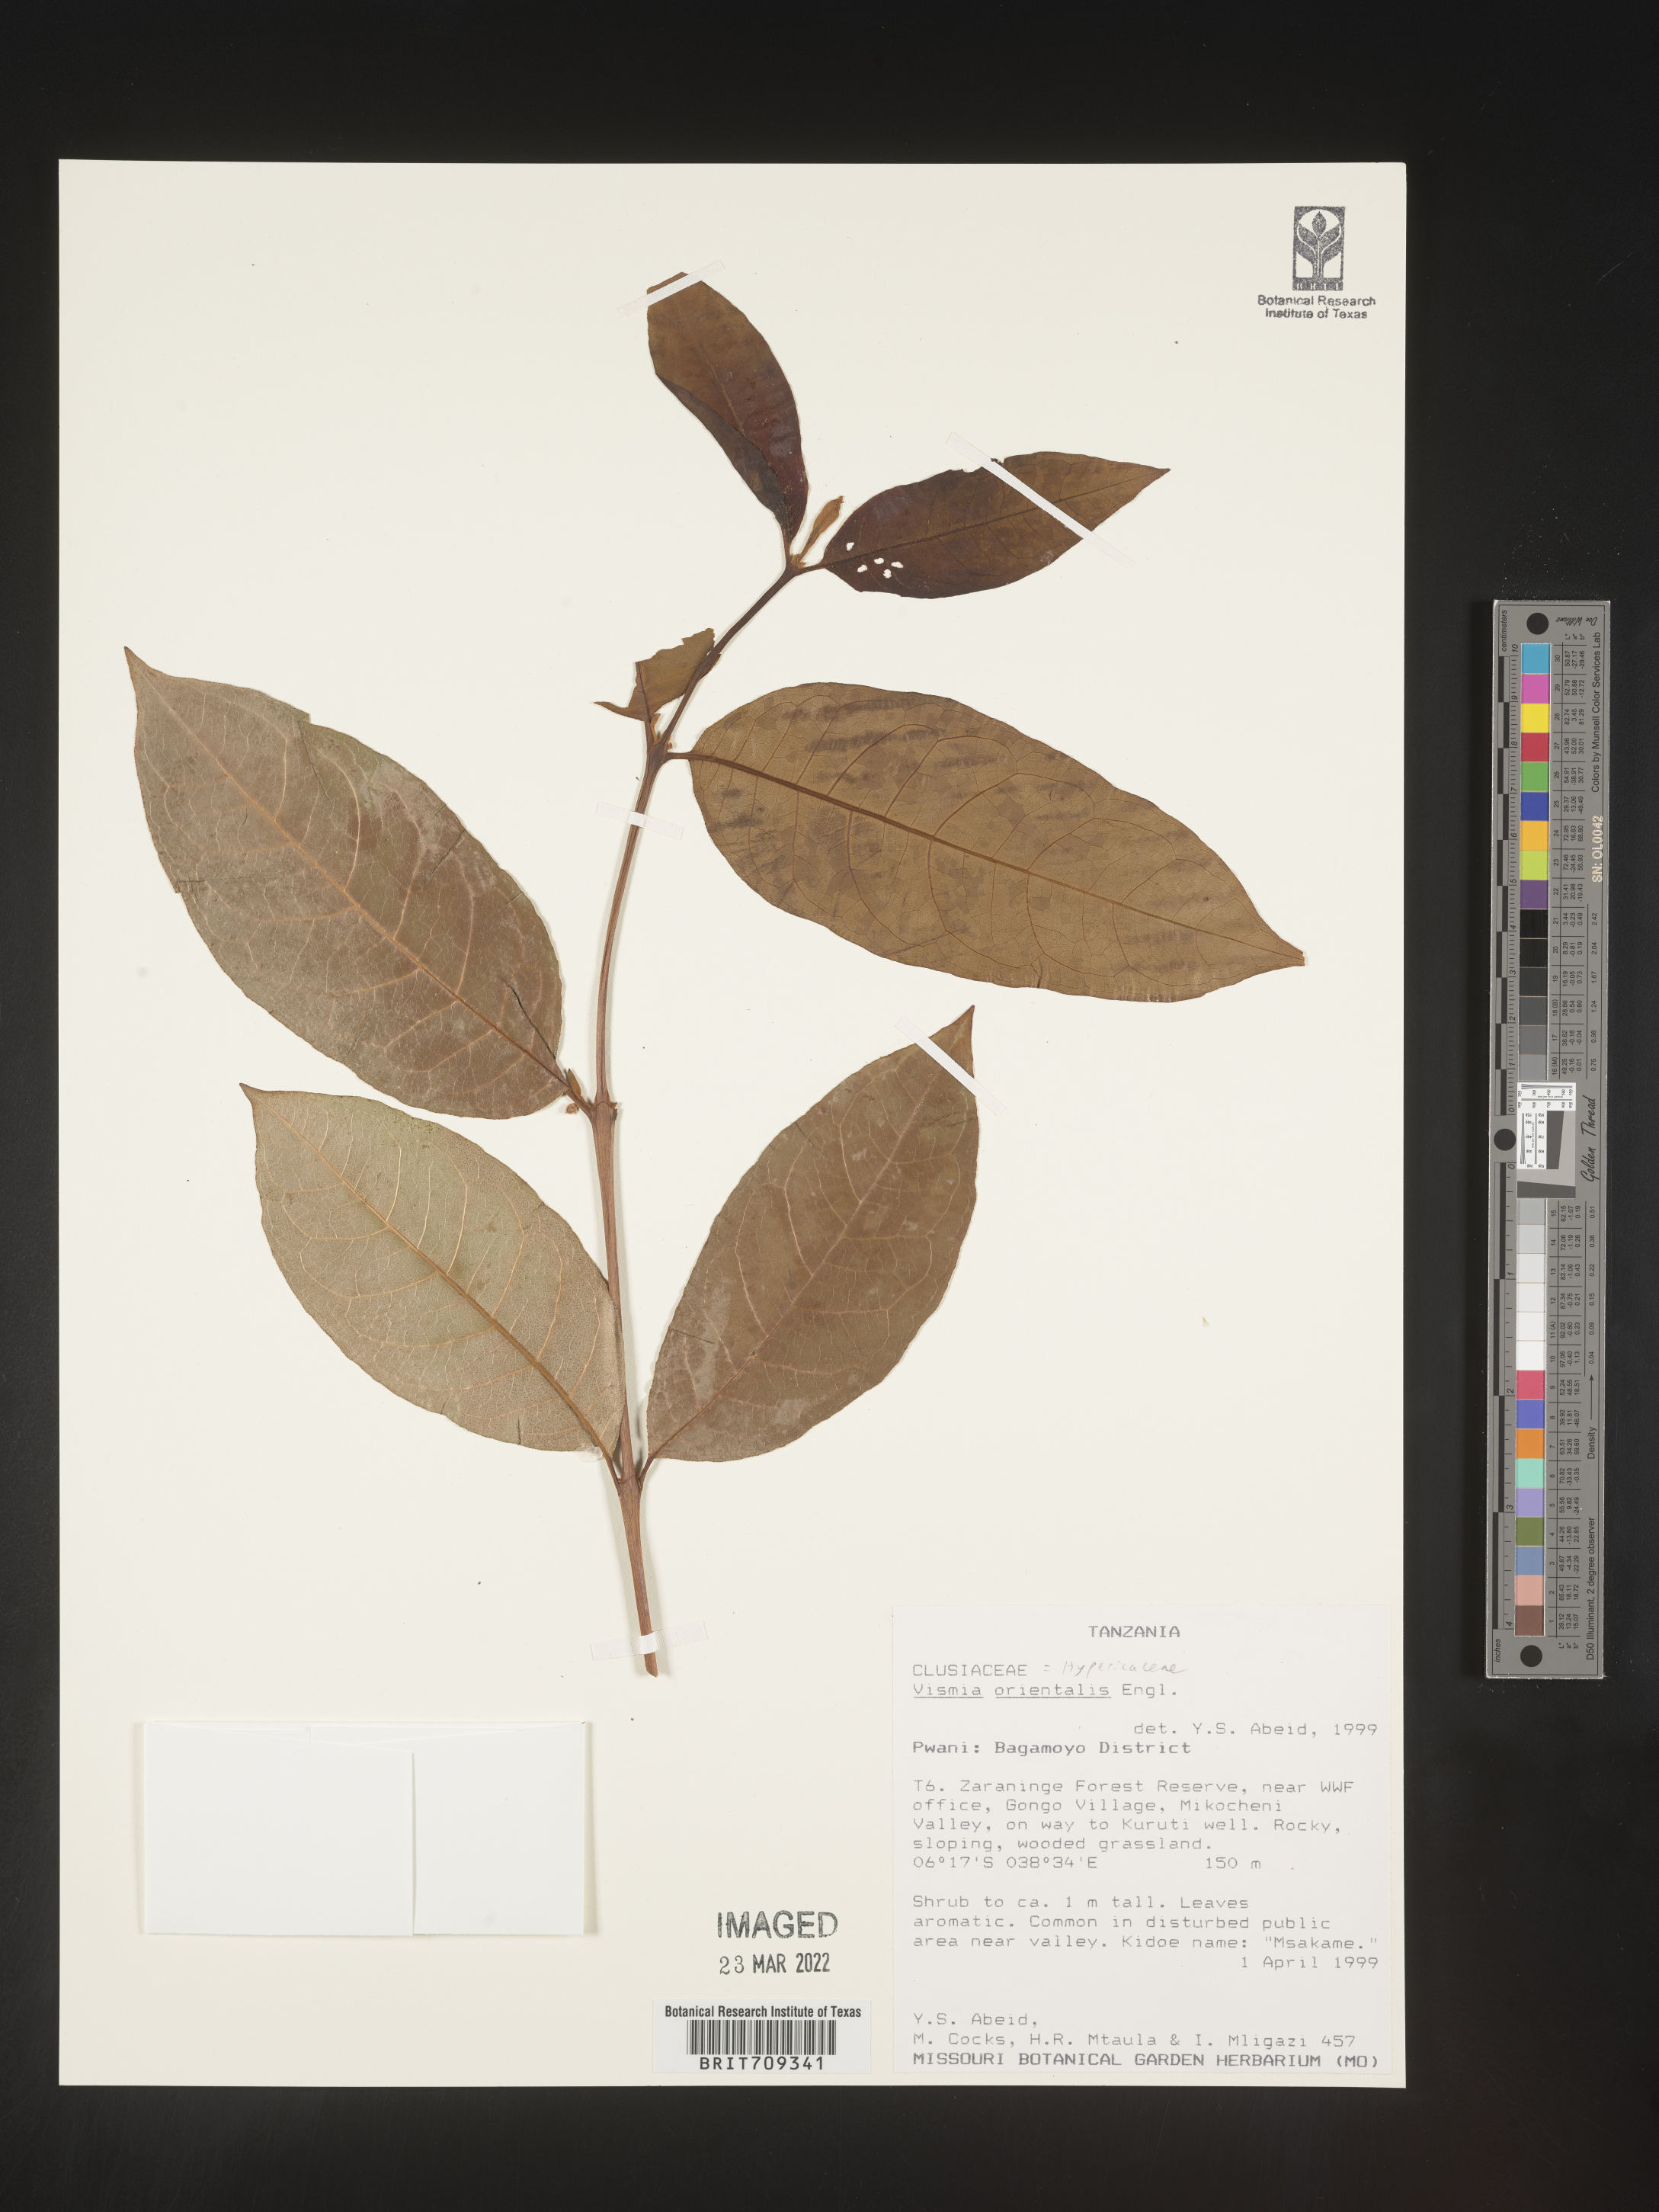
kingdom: Plantae
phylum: Tracheophyta
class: Magnoliopsida
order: Malpighiales
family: Hypericaceae
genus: Vismia
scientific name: Vismia
